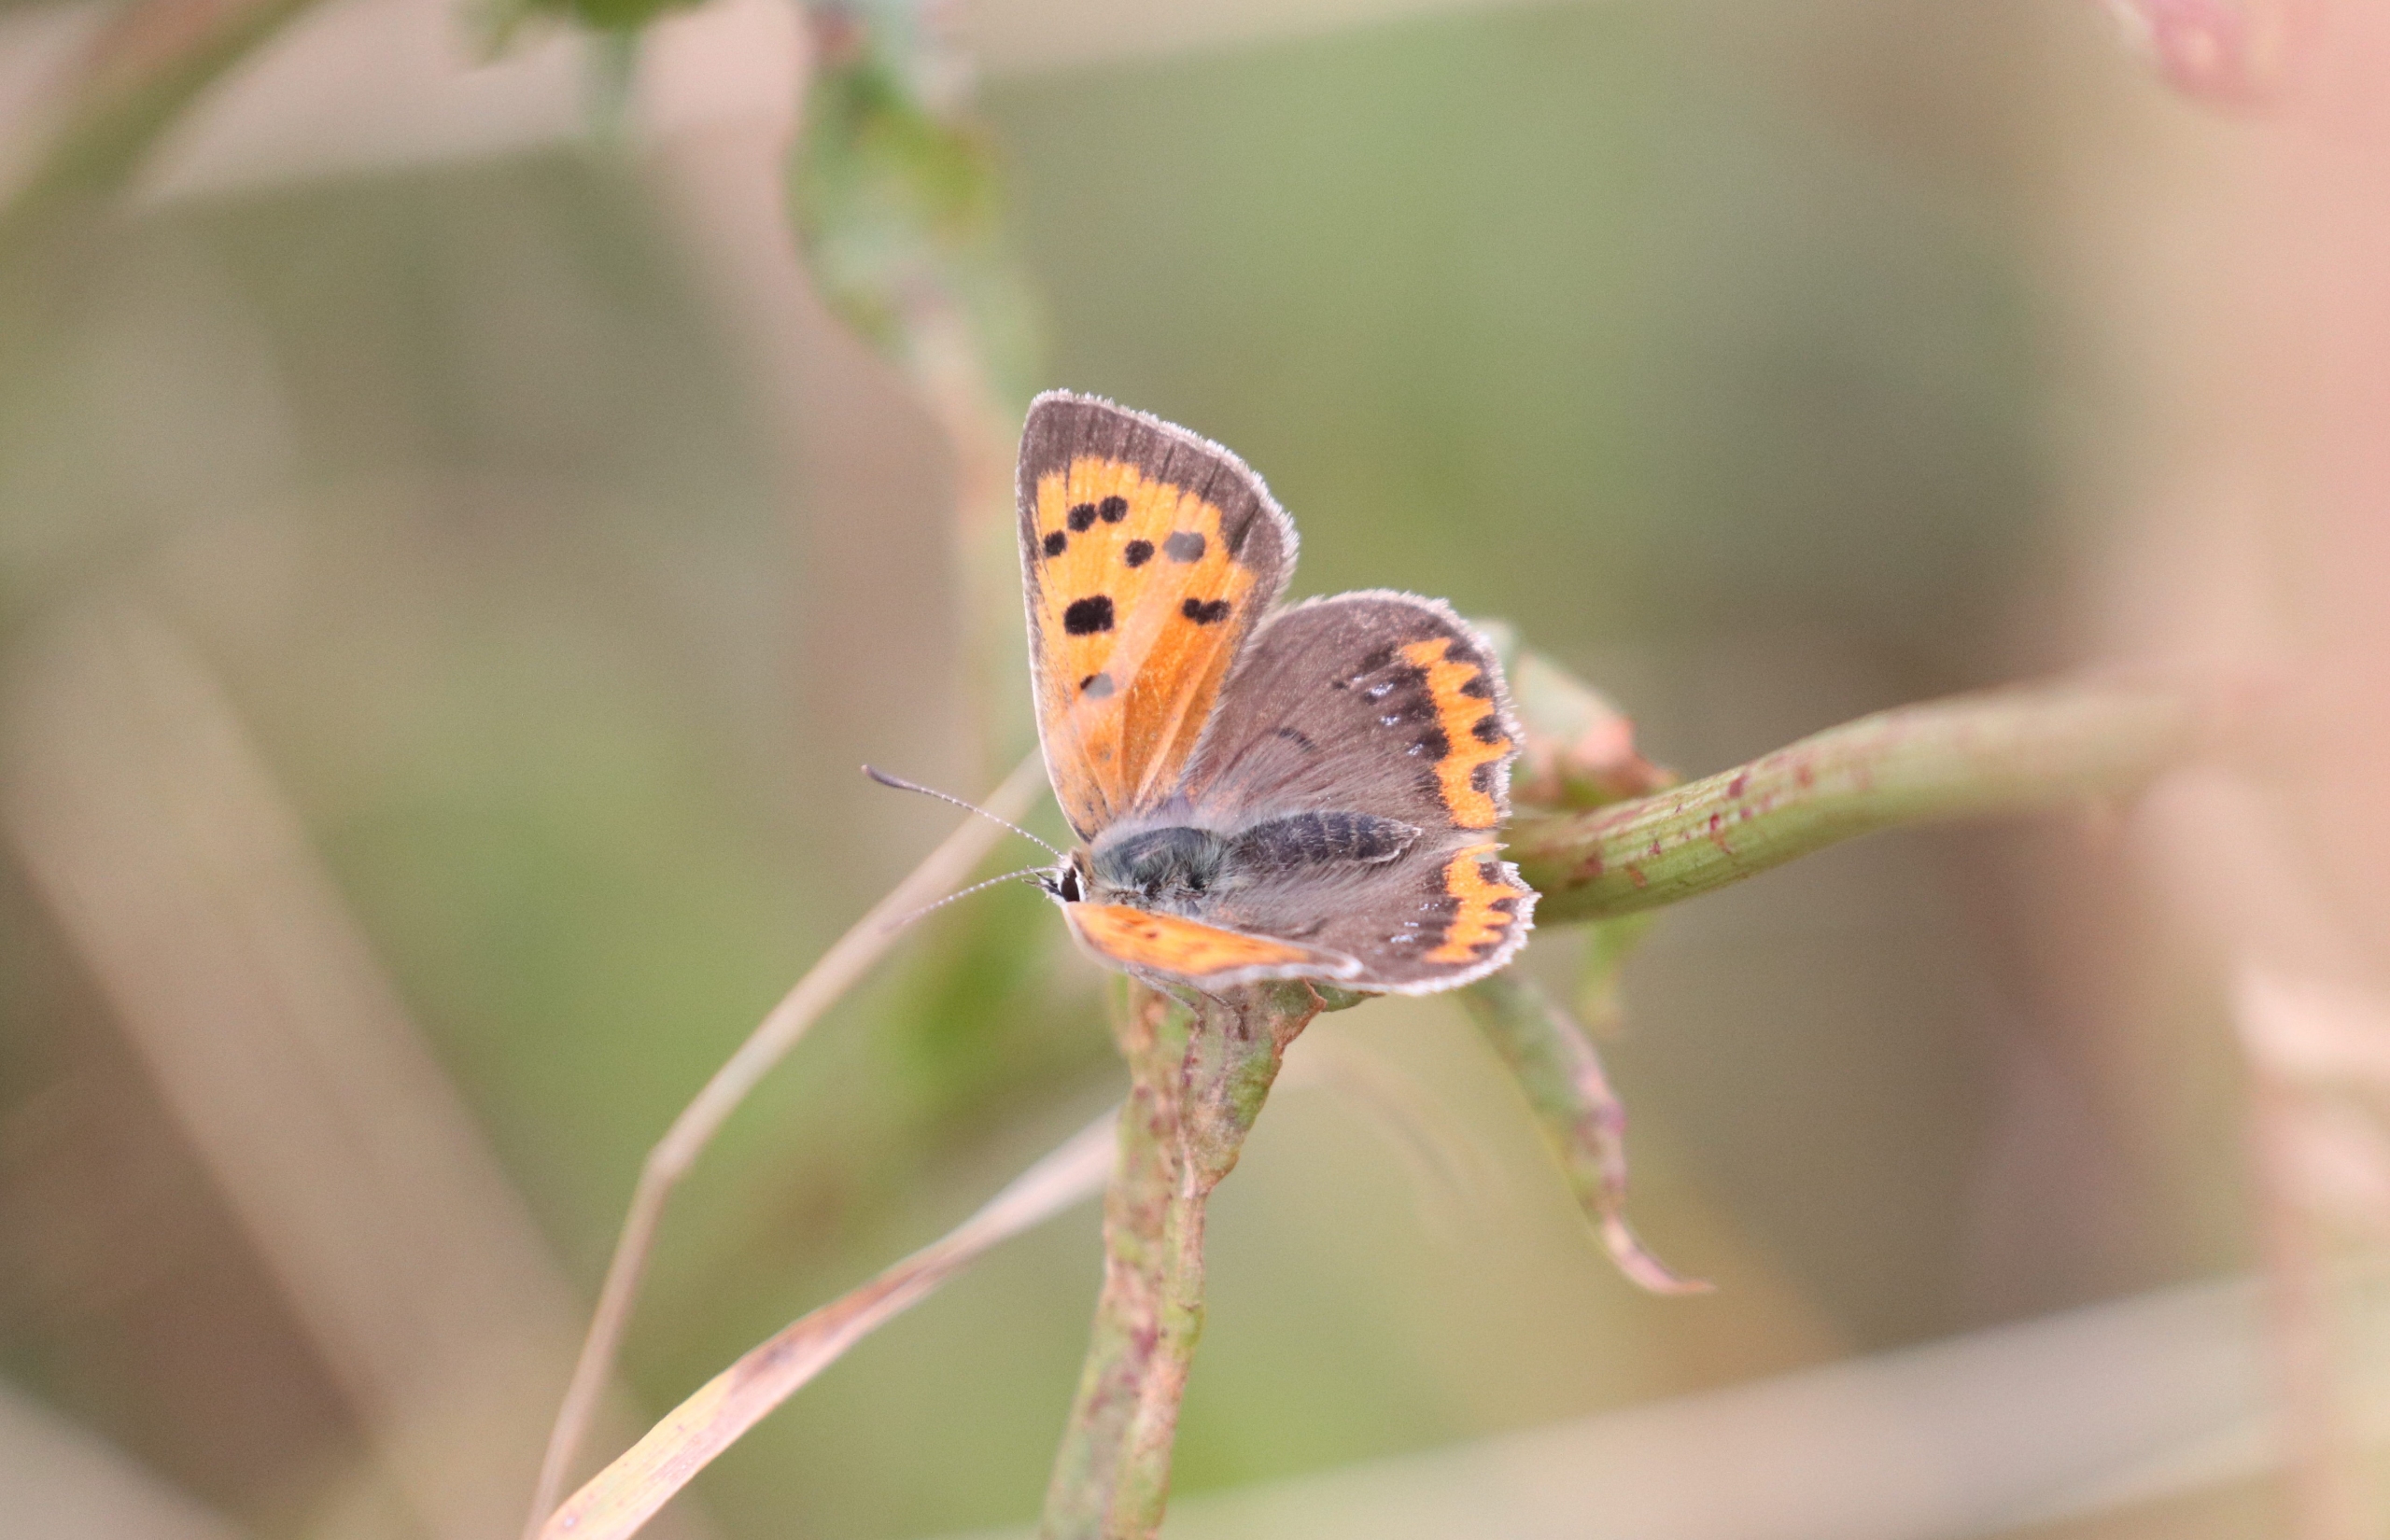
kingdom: Animalia
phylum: Arthropoda
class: Insecta
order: Lepidoptera
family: Lycaenidae
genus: Lycaena
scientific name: Lycaena phlaeas
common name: Lille ildfugl
